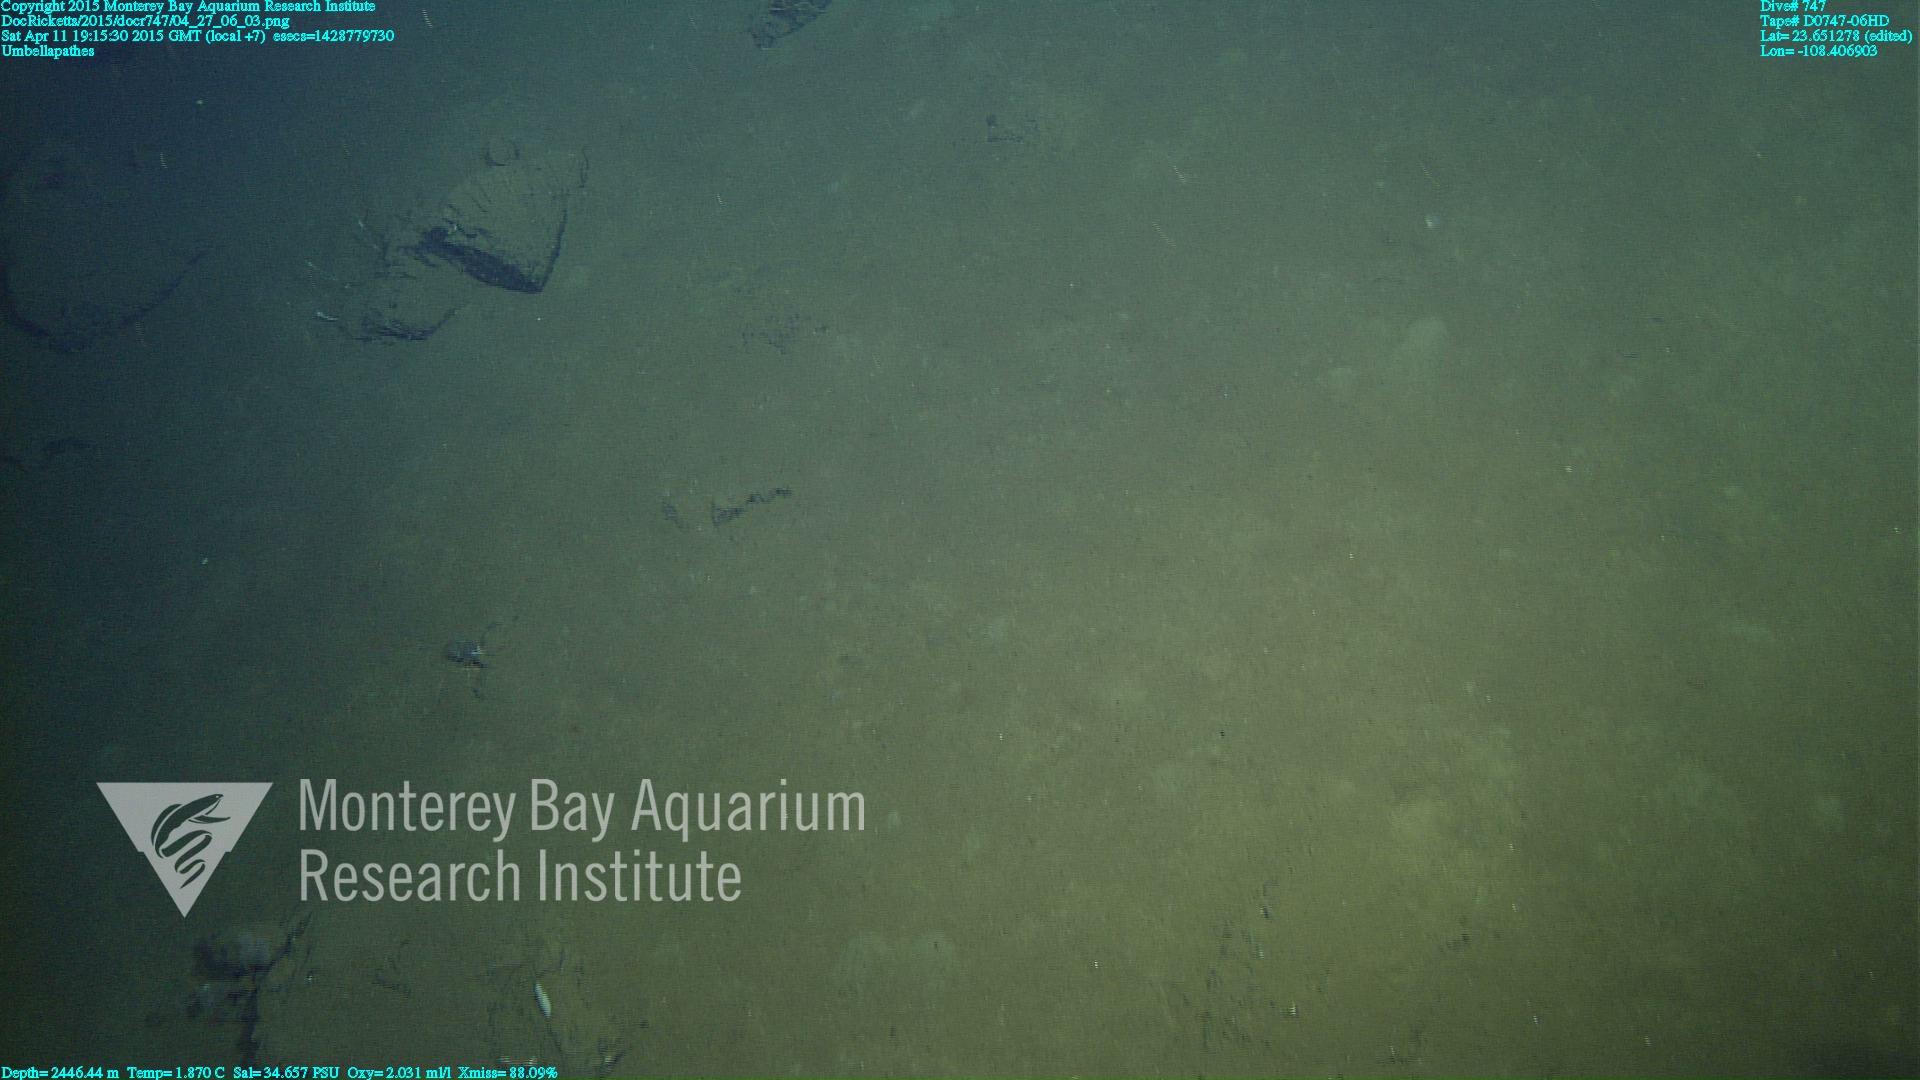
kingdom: Animalia
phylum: Cnidaria
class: Anthozoa
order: Antipatharia
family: Schizopathidae
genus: Umbellapathes
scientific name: Umbellapathes
